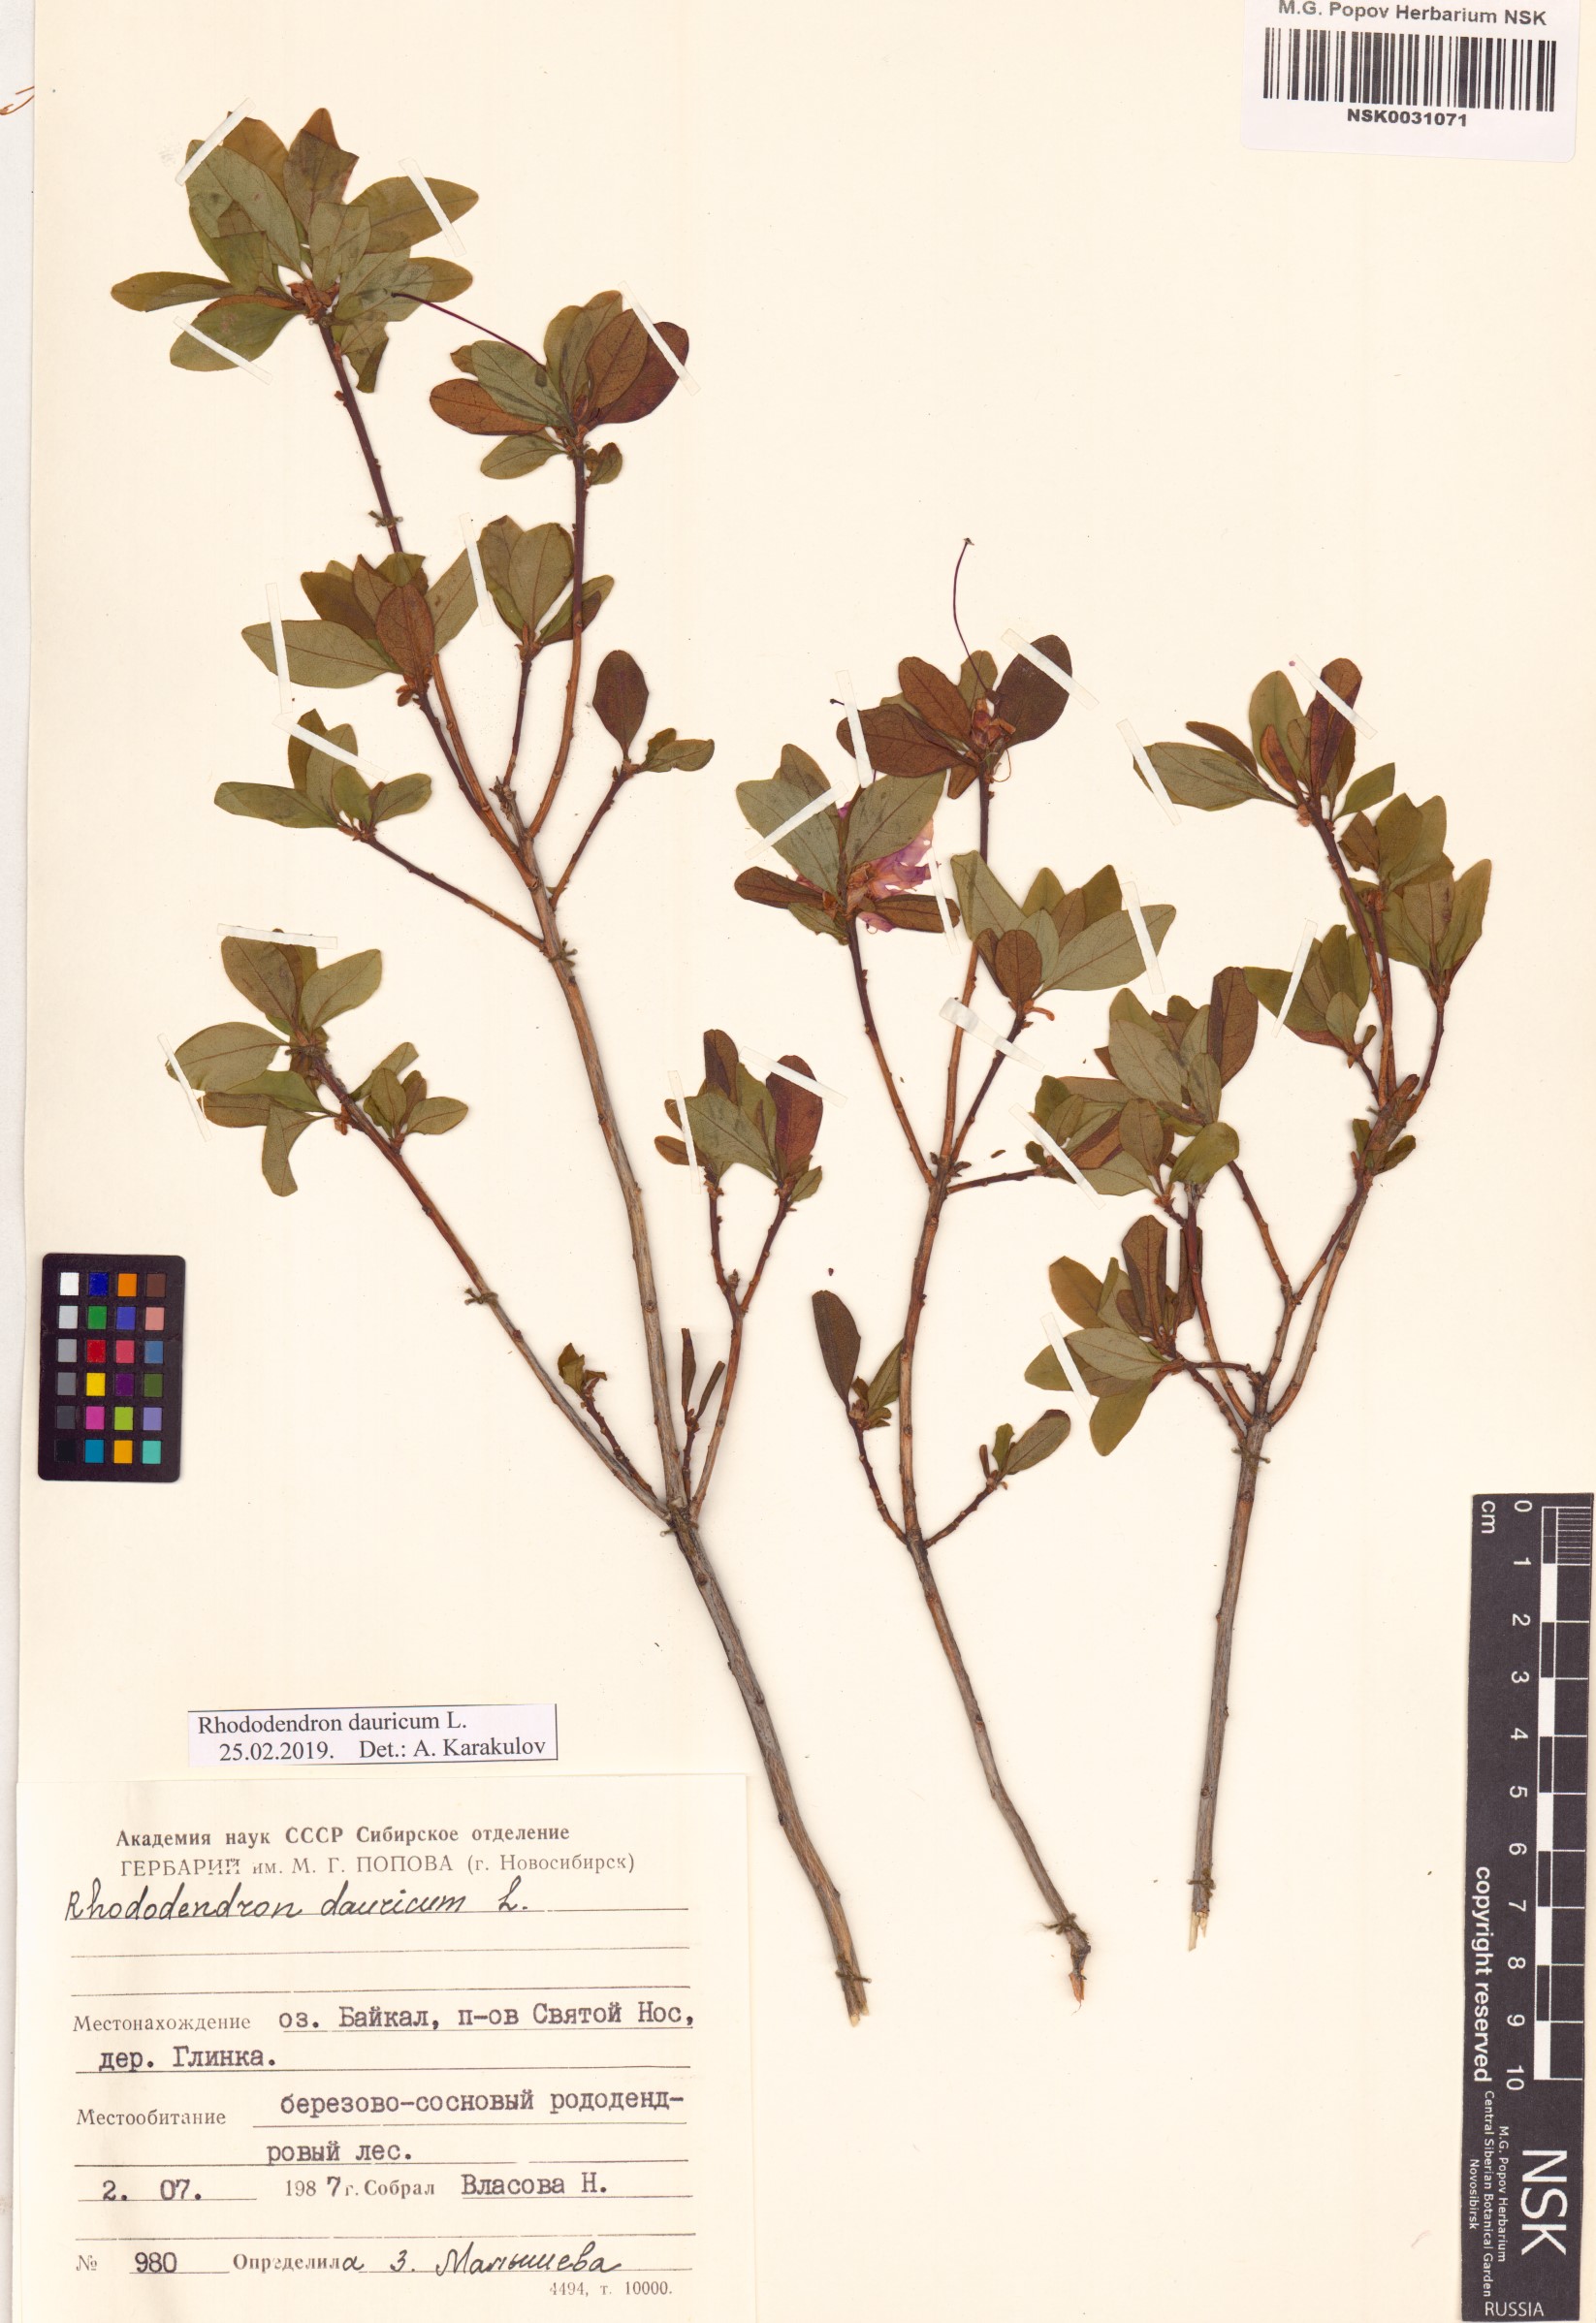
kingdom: Plantae
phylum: Tracheophyta
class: Magnoliopsida
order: Ericales
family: Ericaceae
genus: Rhododendron
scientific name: Rhododendron dauricum
